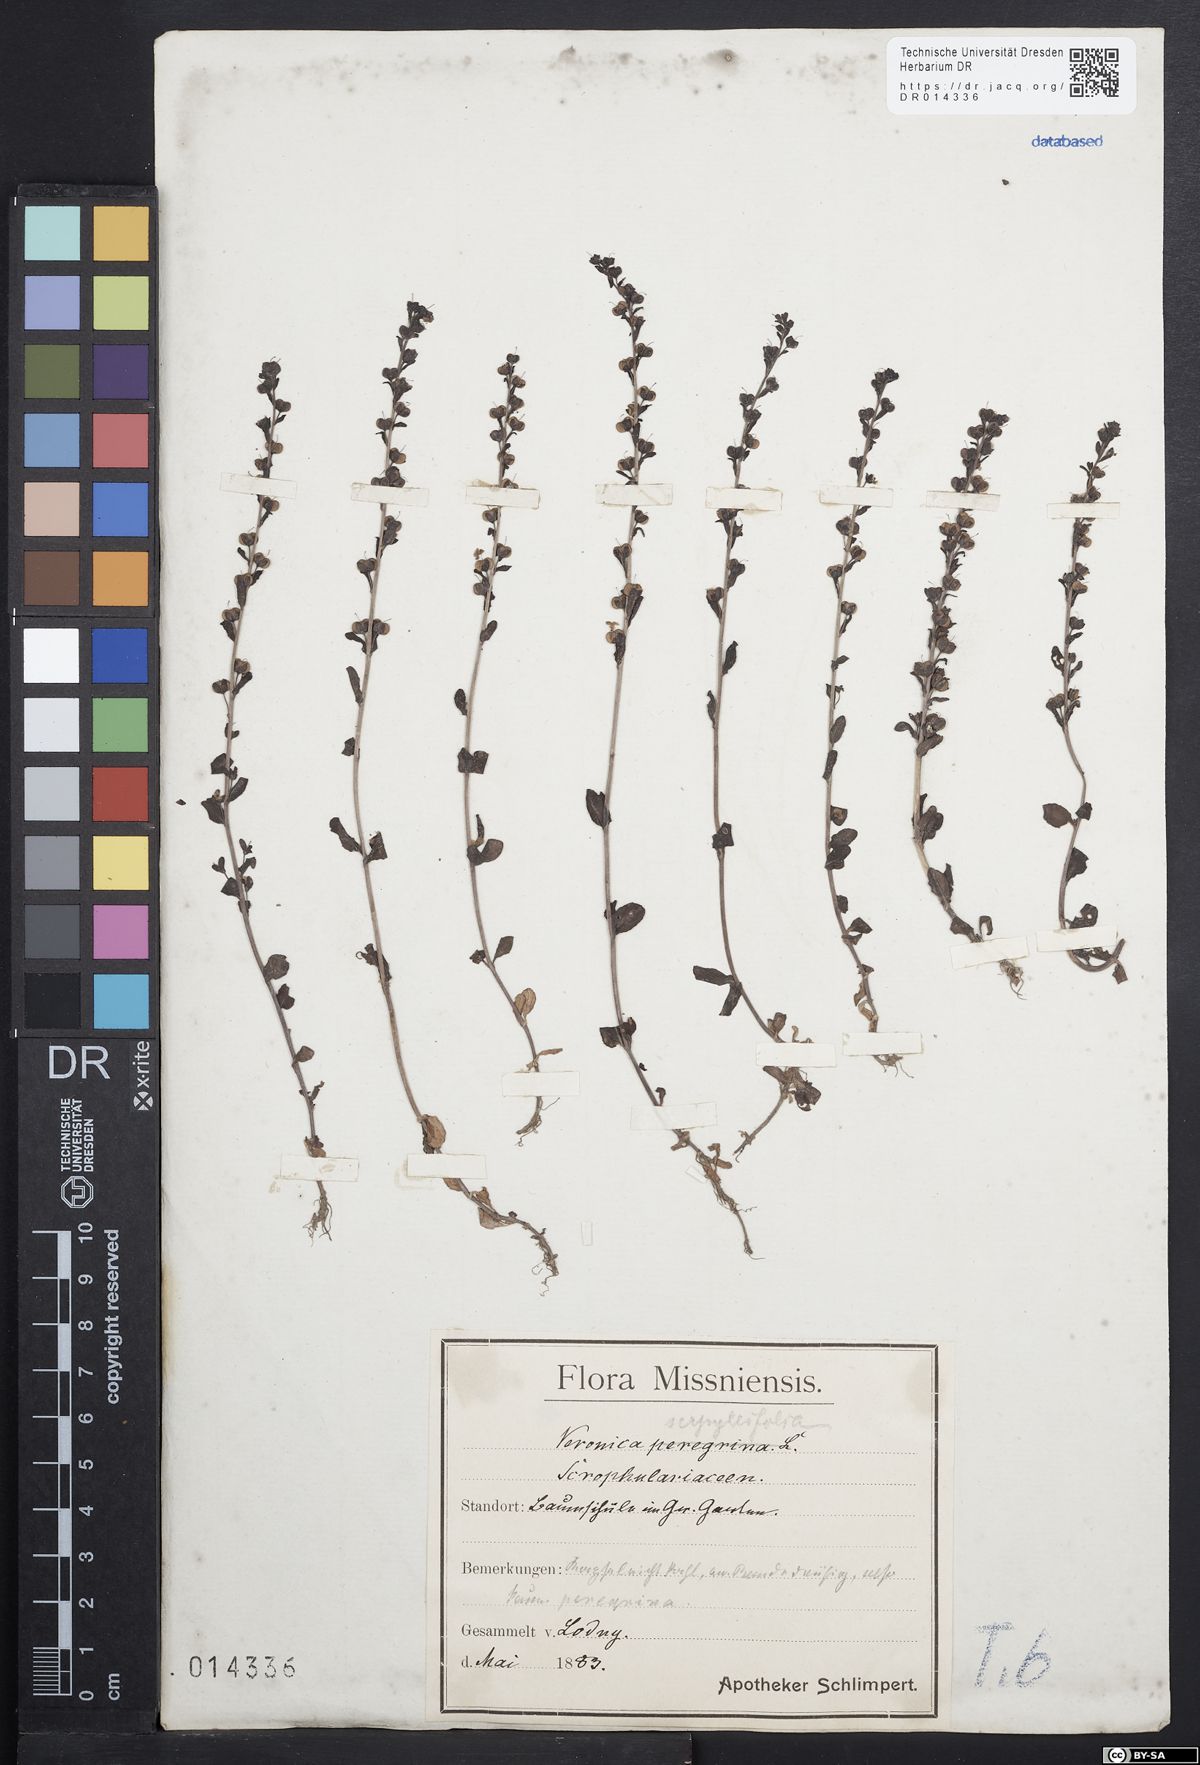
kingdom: Plantae
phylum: Tracheophyta
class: Magnoliopsida
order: Lamiales
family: Plantaginaceae
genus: Veronica
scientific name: Veronica serpyllifolia
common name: Thyme-leaved speedwell
